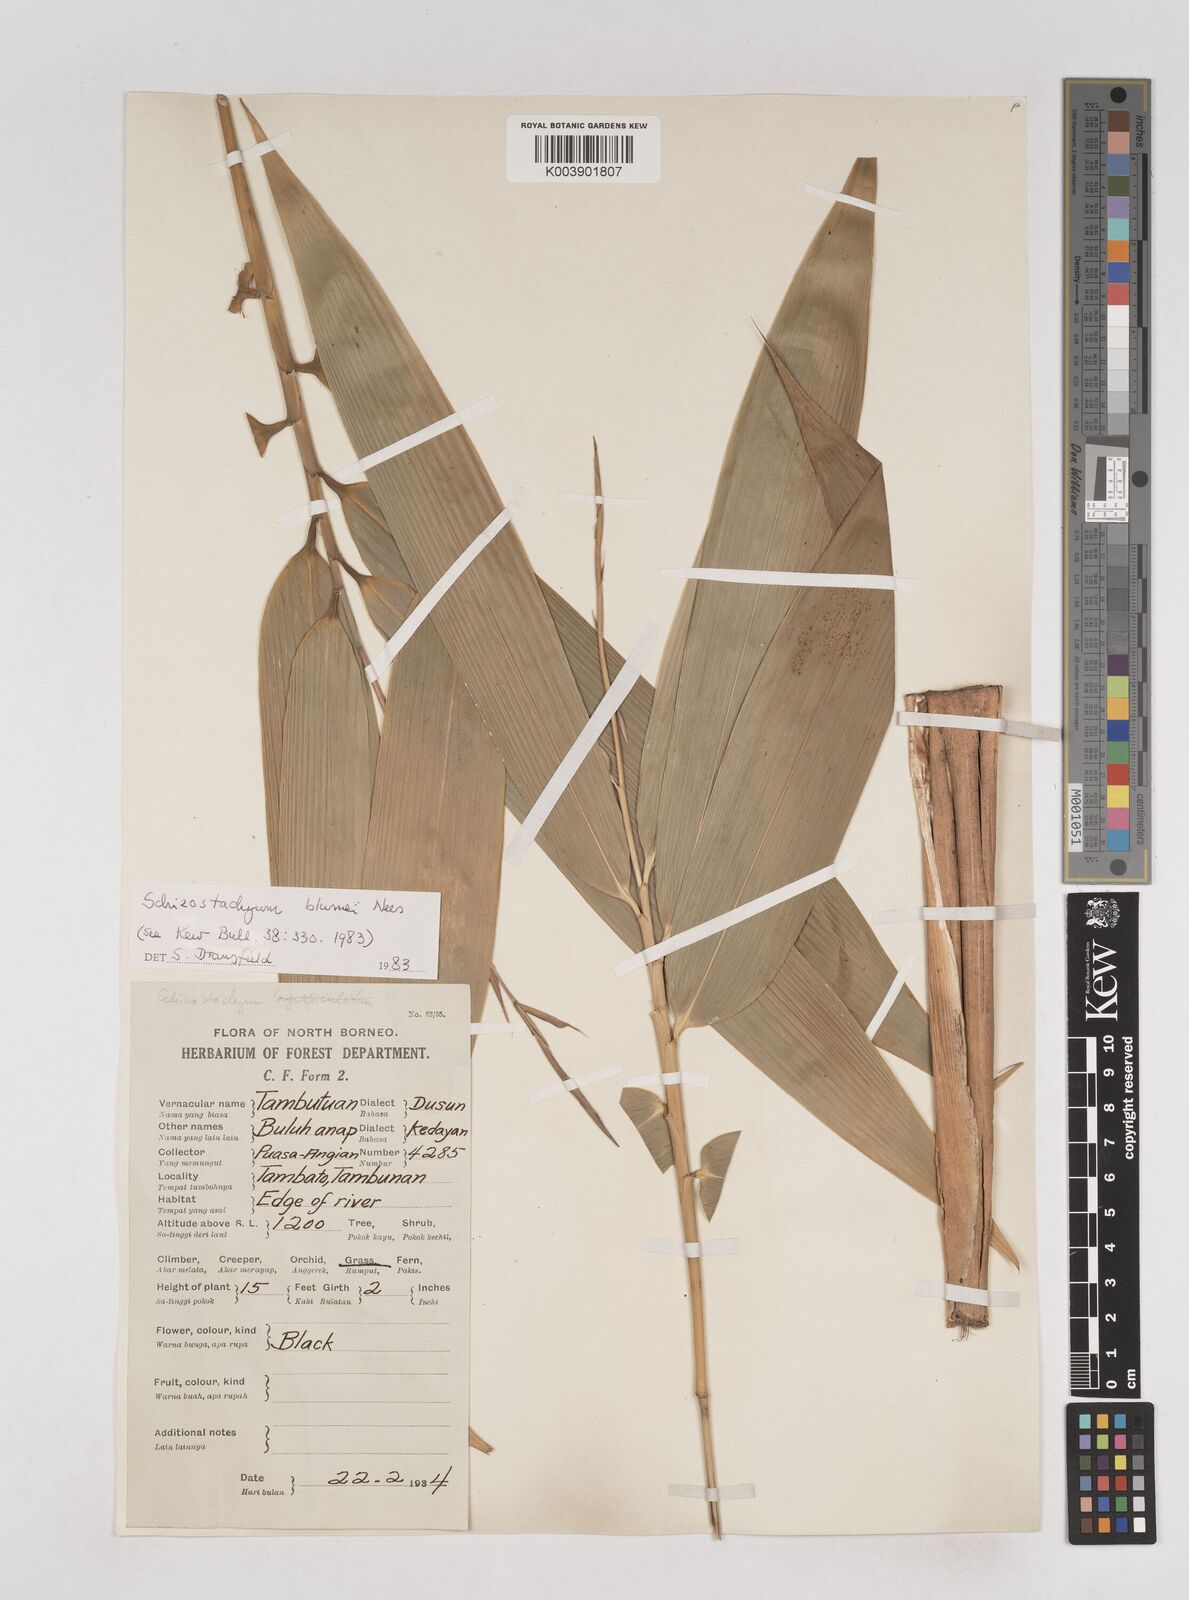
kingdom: Plantae
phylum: Tracheophyta
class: Liliopsida
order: Poales
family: Poaceae
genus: Schizostachyum
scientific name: Schizostachyum blumei
